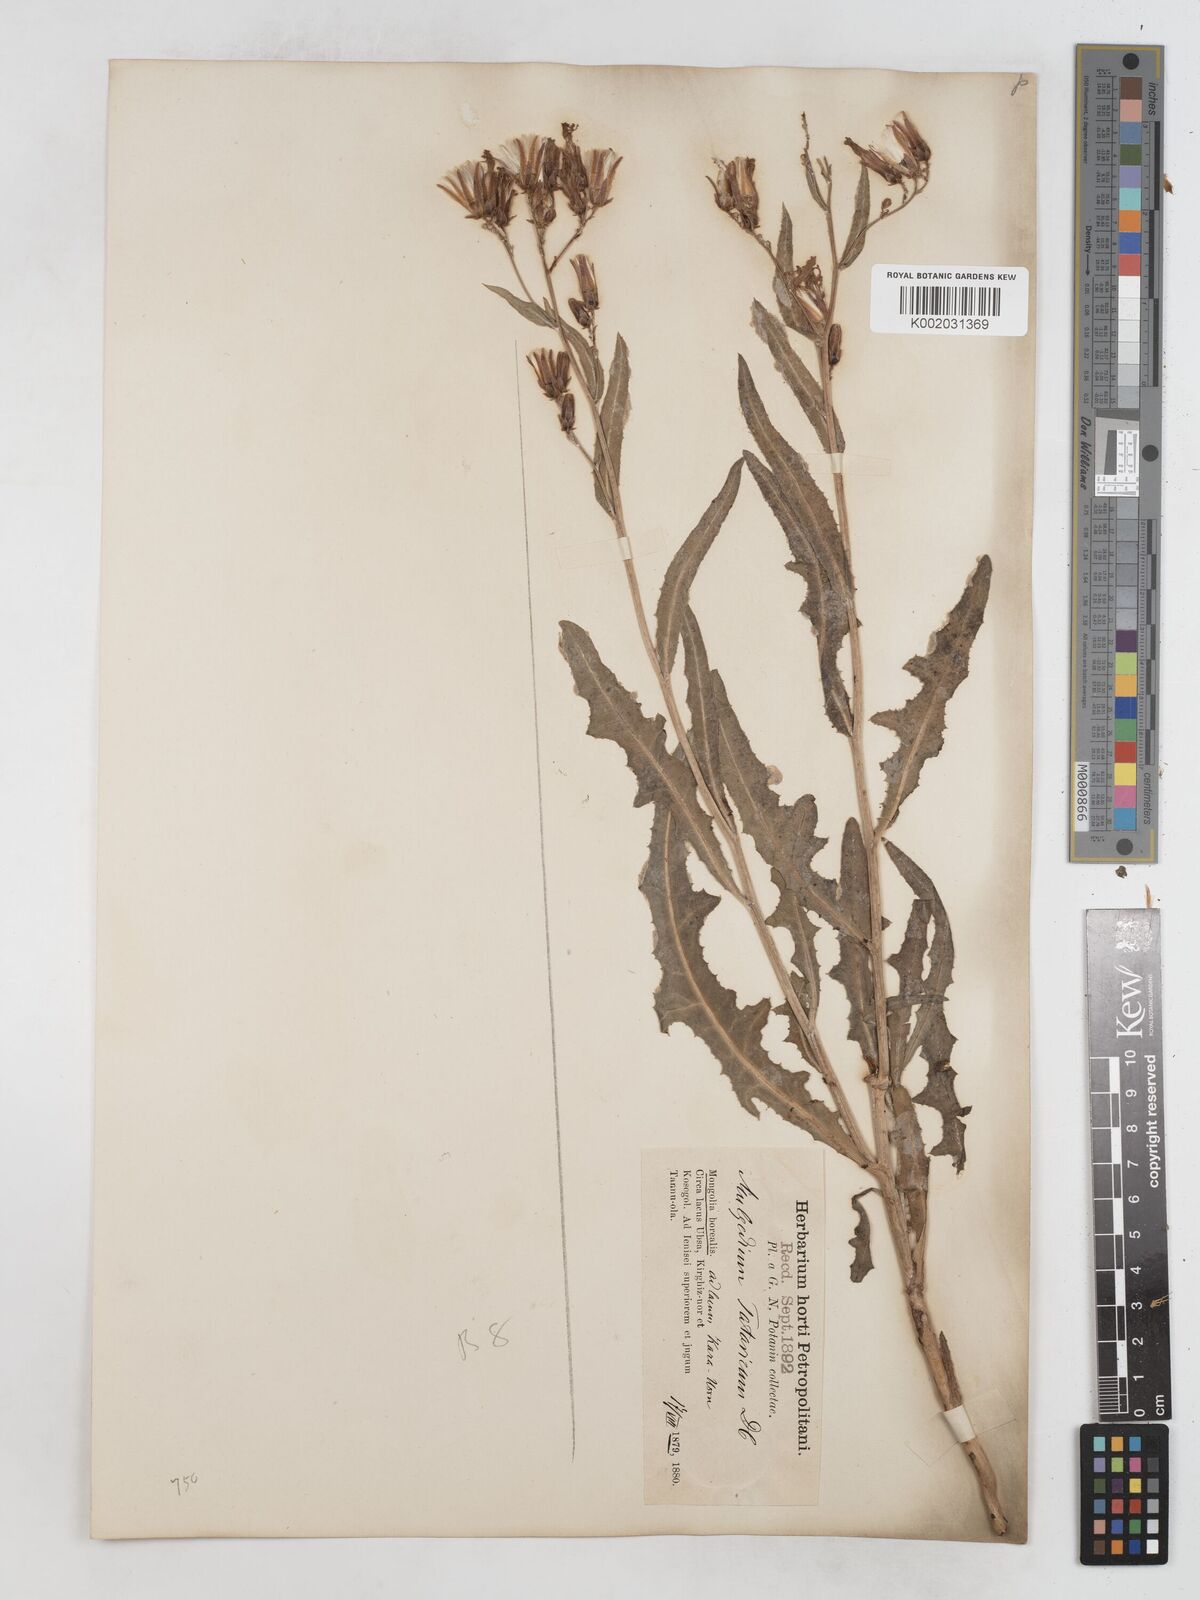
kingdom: Plantae
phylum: Tracheophyta
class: Magnoliopsida
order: Asterales
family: Asteraceae
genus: Lactuca
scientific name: Lactuca tatarica
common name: Blue lettuce
